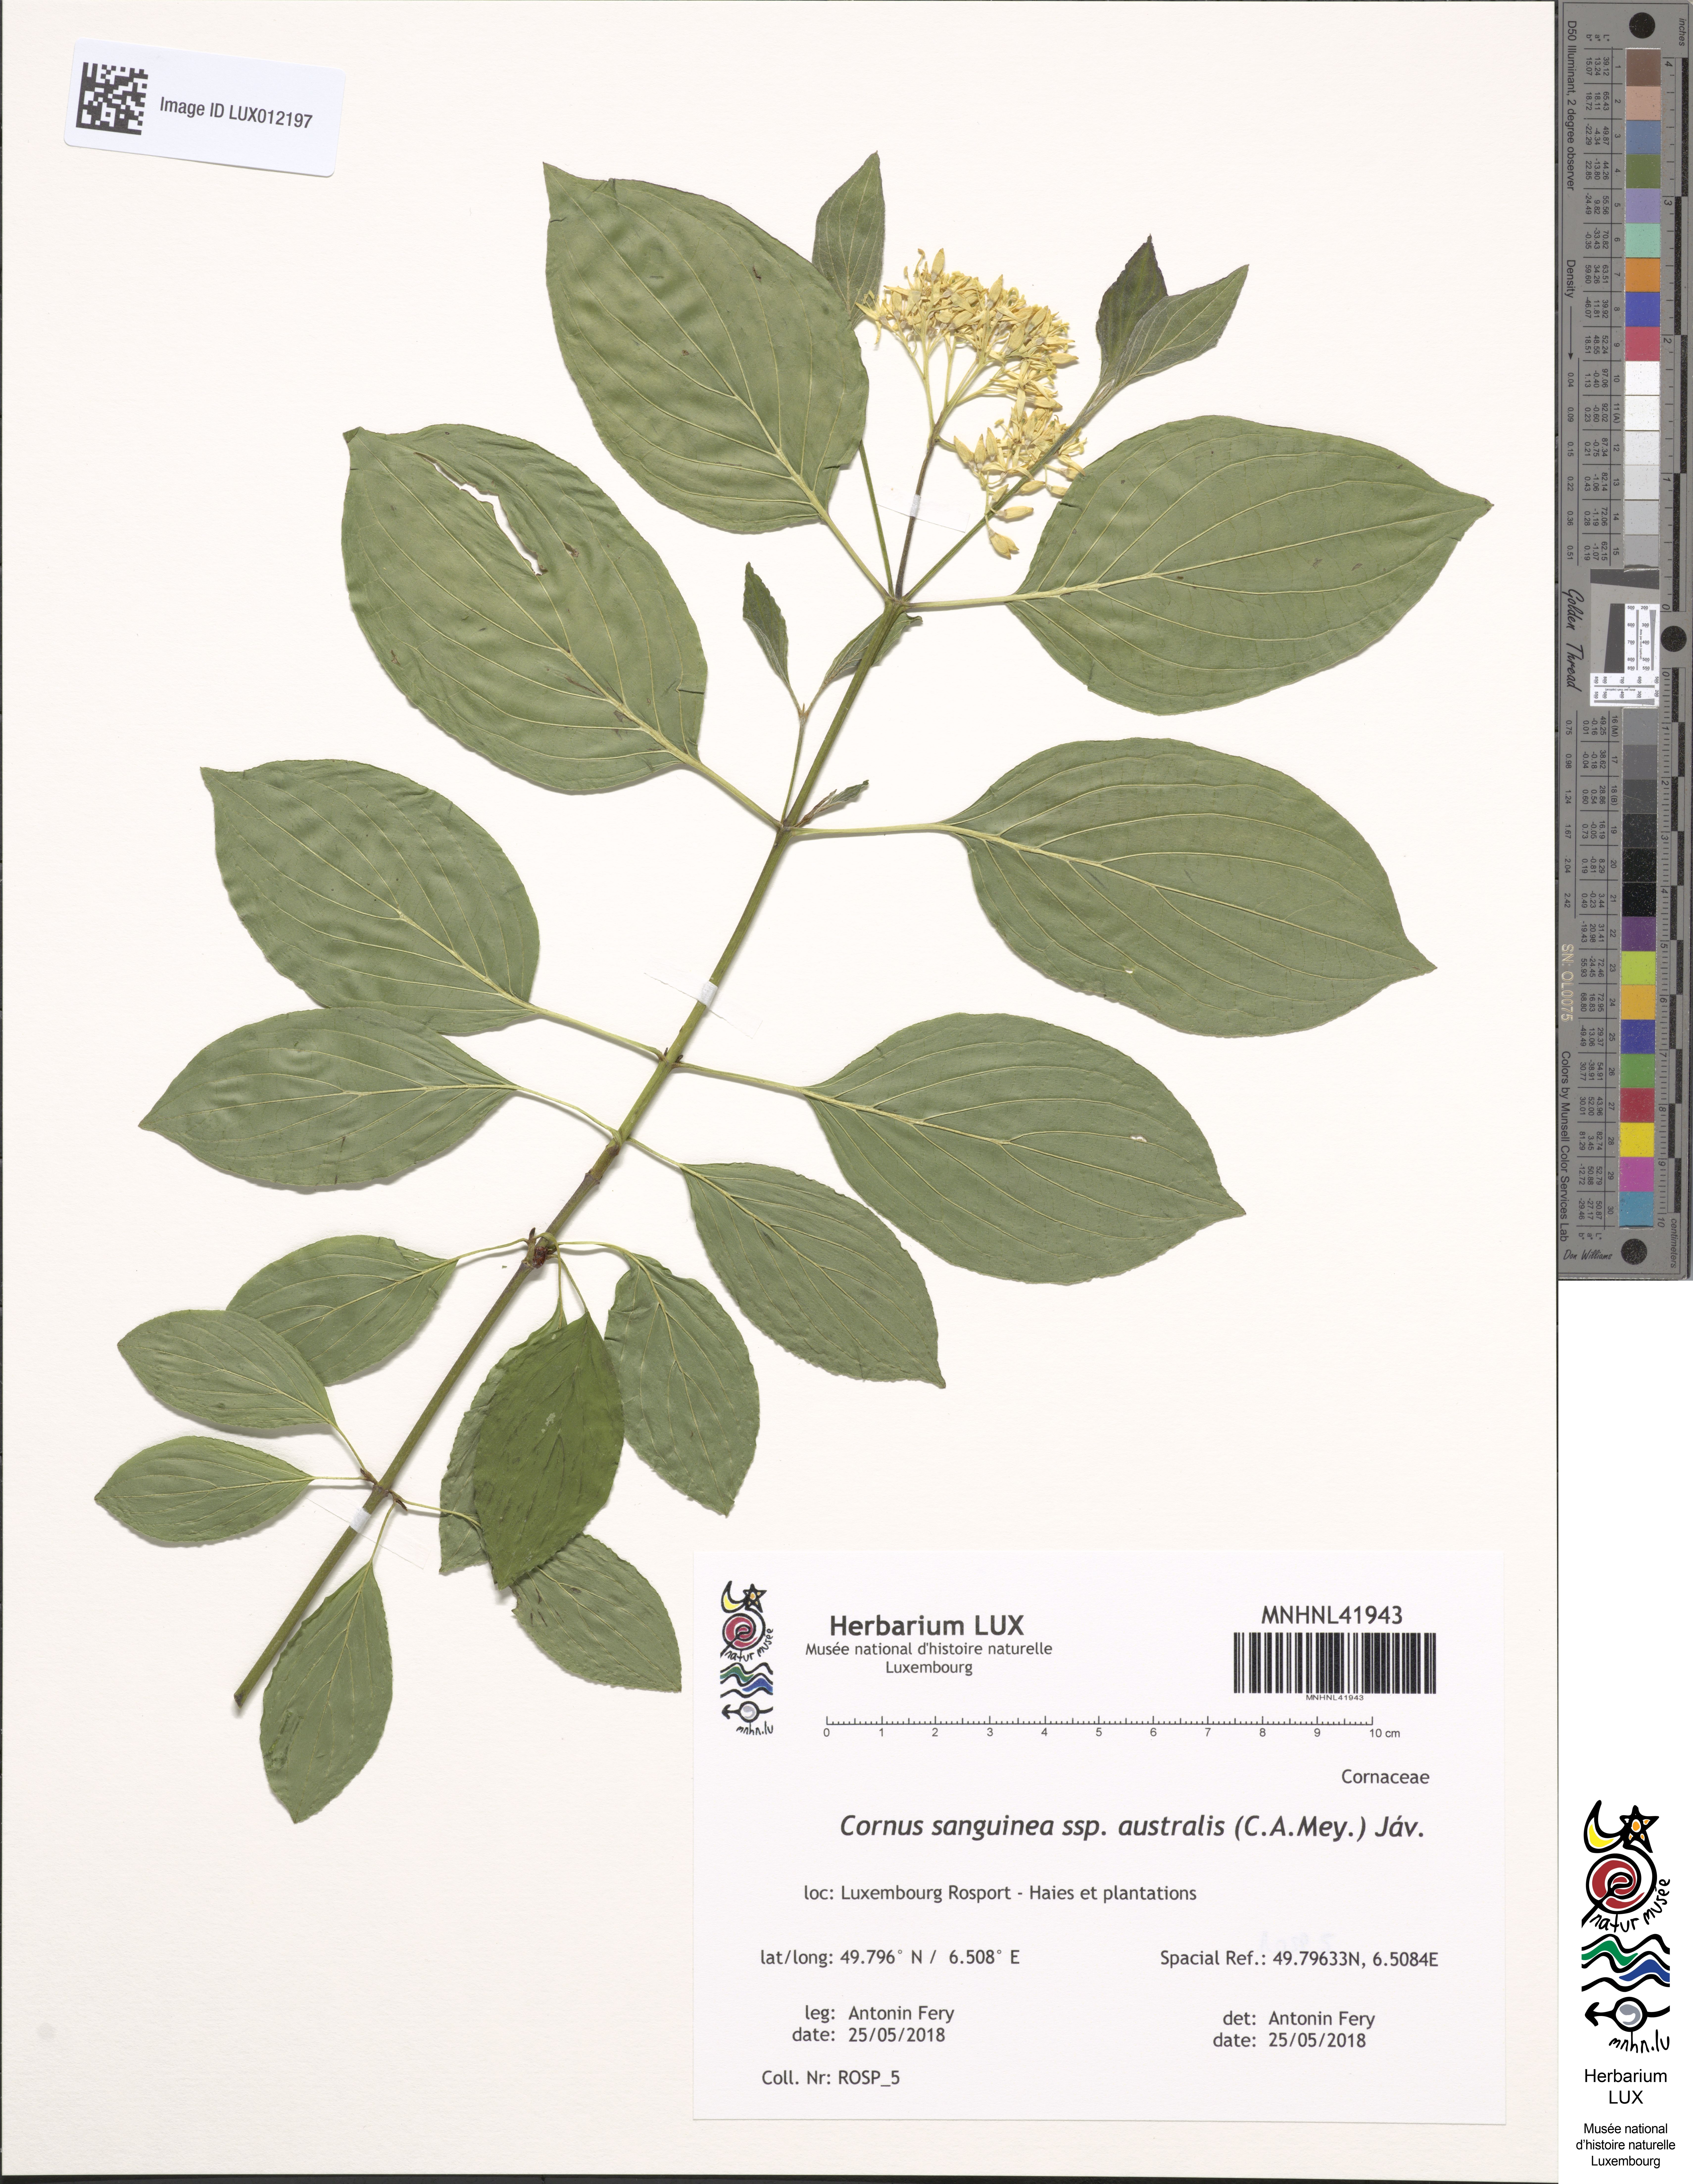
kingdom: Plantae
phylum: Tracheophyta
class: Magnoliopsida
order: Cornales
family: Cornaceae
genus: Cornus
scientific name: Cornus sanguinea
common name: Dogwood
